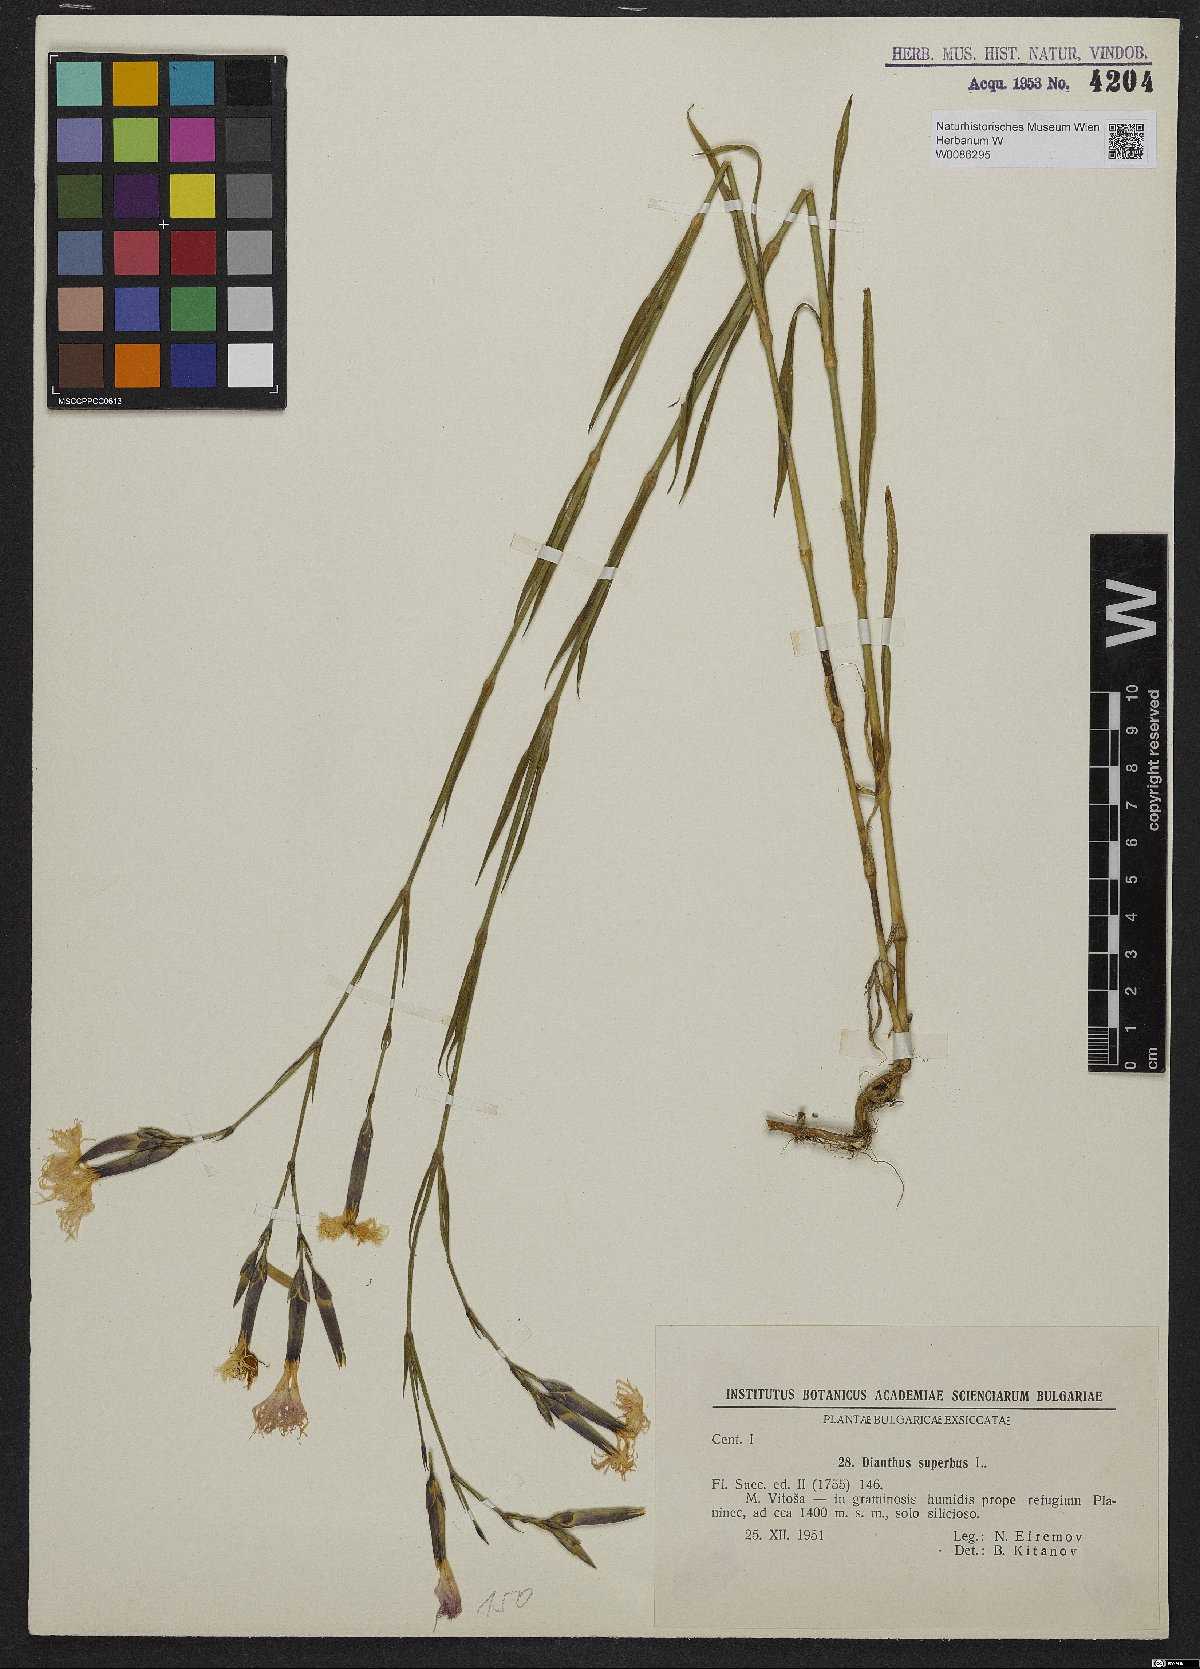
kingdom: Plantae
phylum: Tracheophyta
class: Magnoliopsida
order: Caryophyllales
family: Caryophyllaceae
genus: Dianthus
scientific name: Dianthus superbus
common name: Fringed pink
